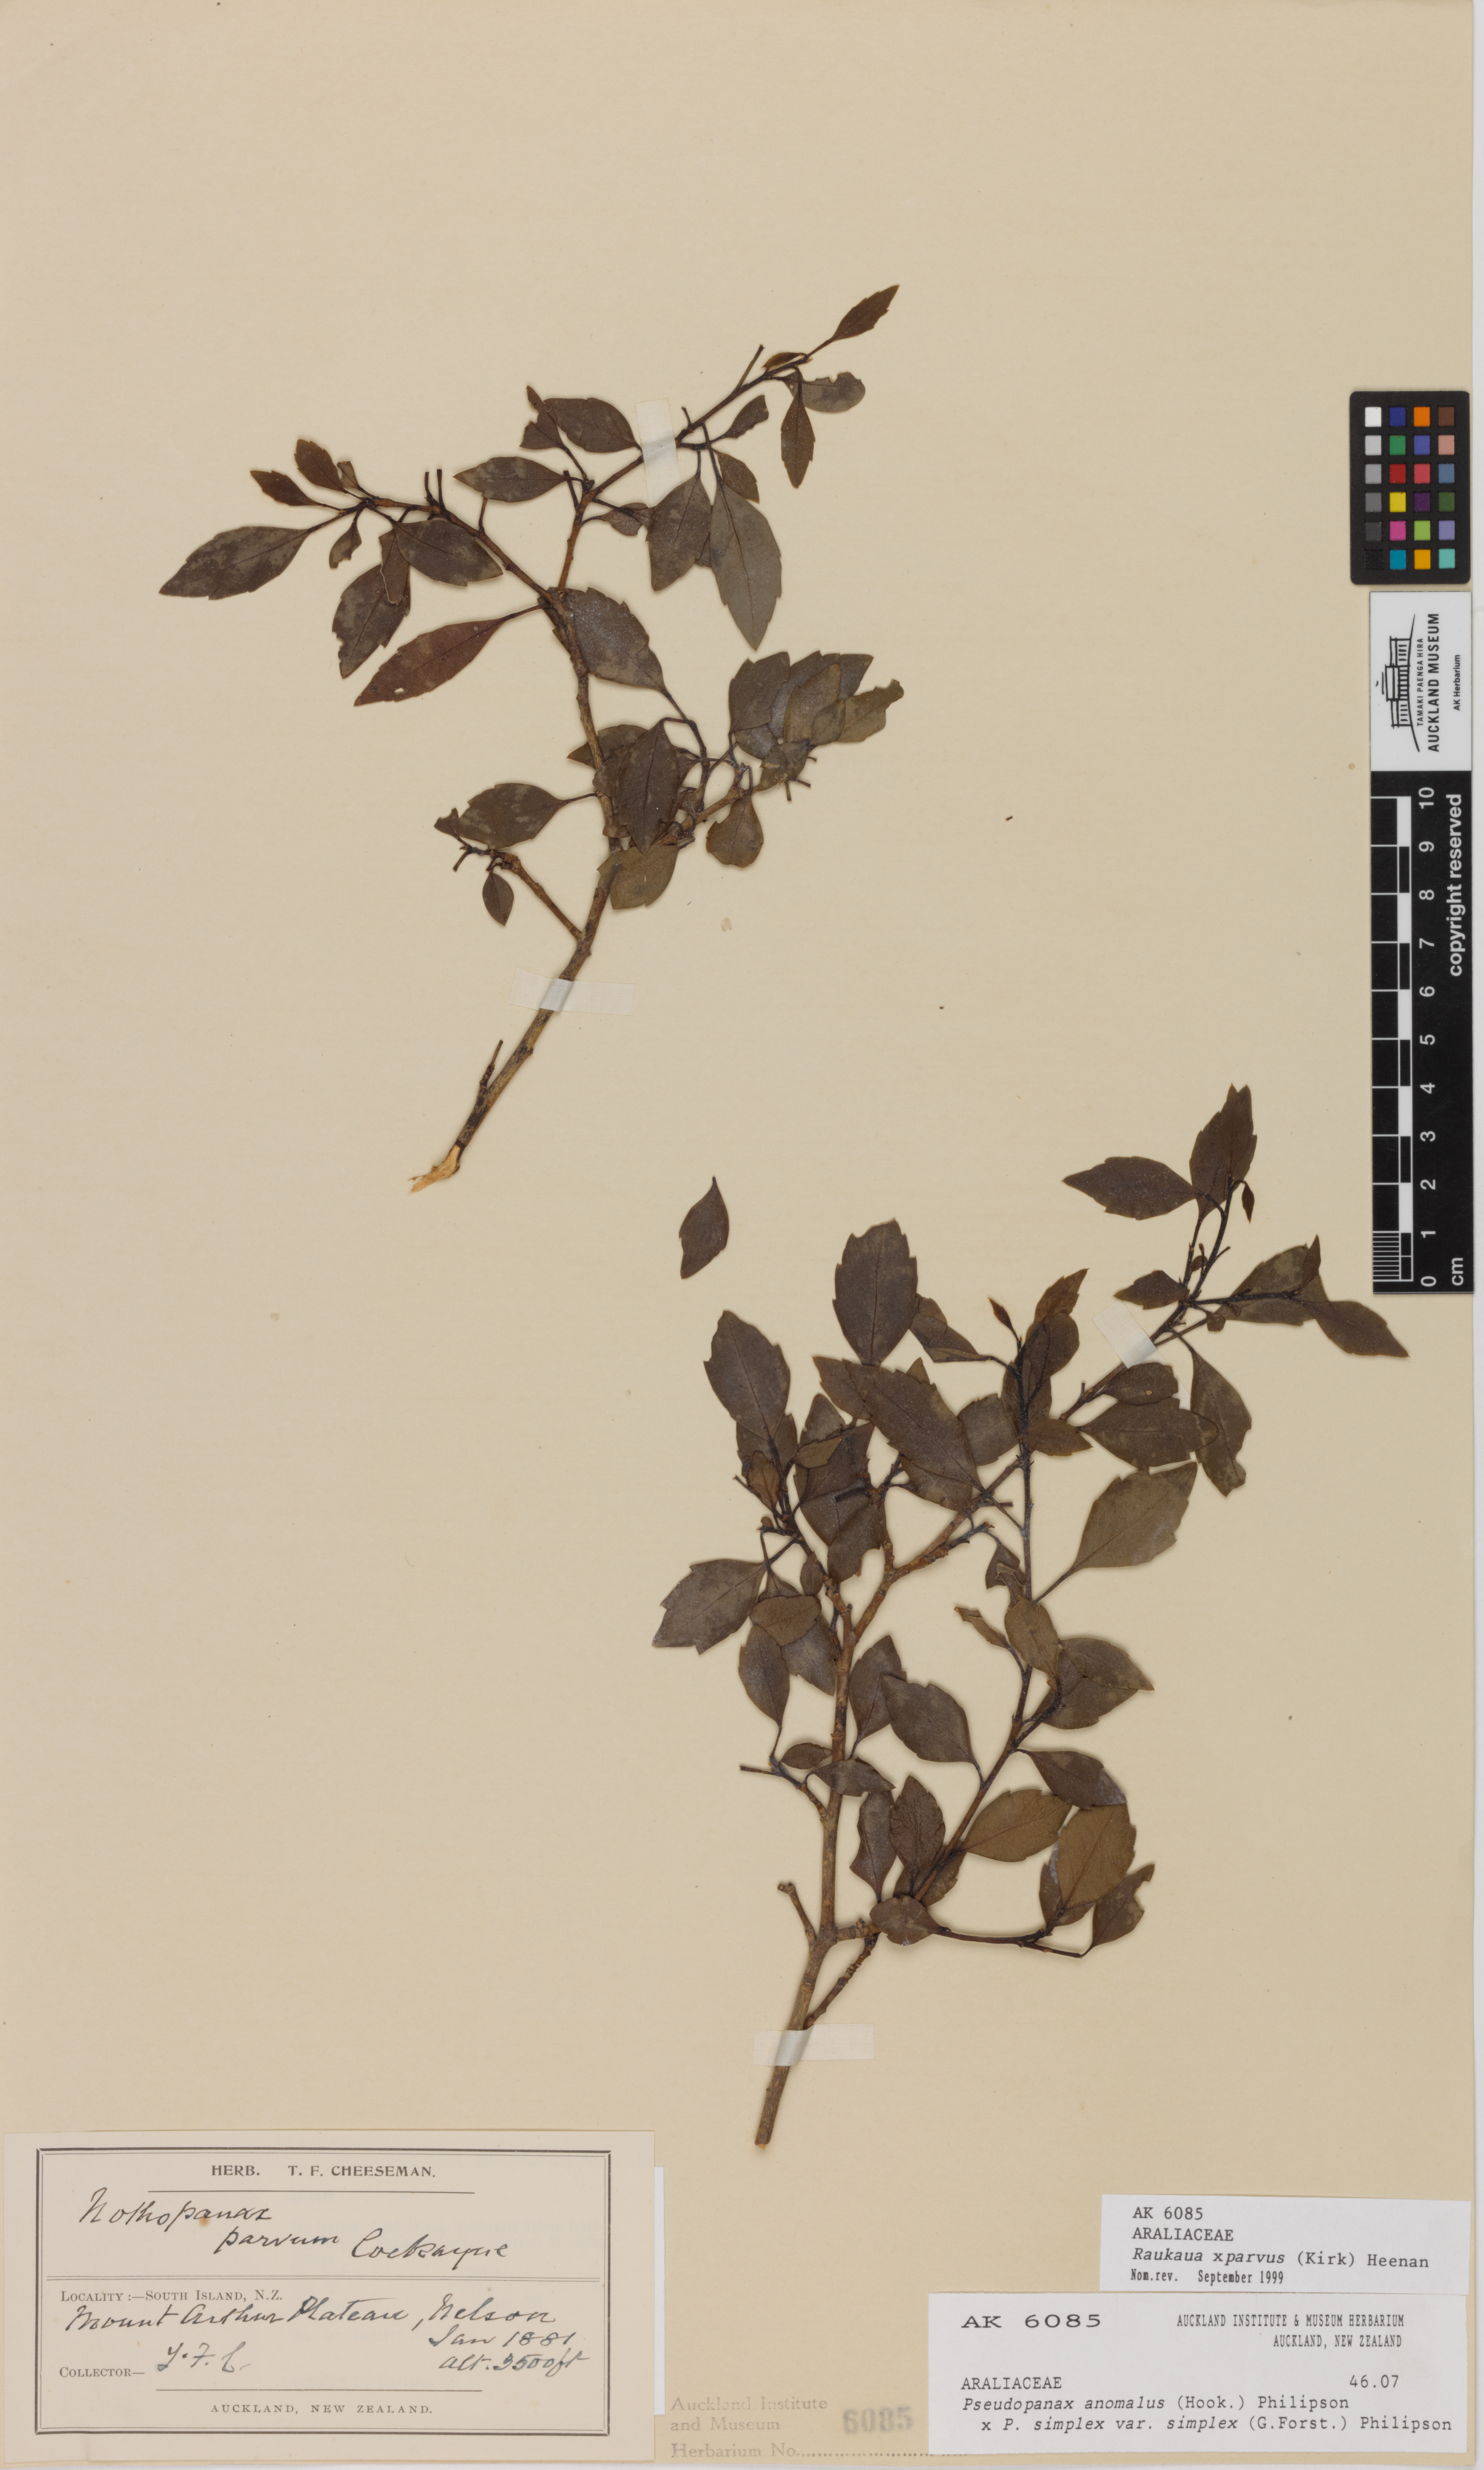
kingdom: Plantae
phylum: Tracheophyta
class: Magnoliopsida
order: Apiales
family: Araliaceae
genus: Raukaua
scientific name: Raukaua parvus
